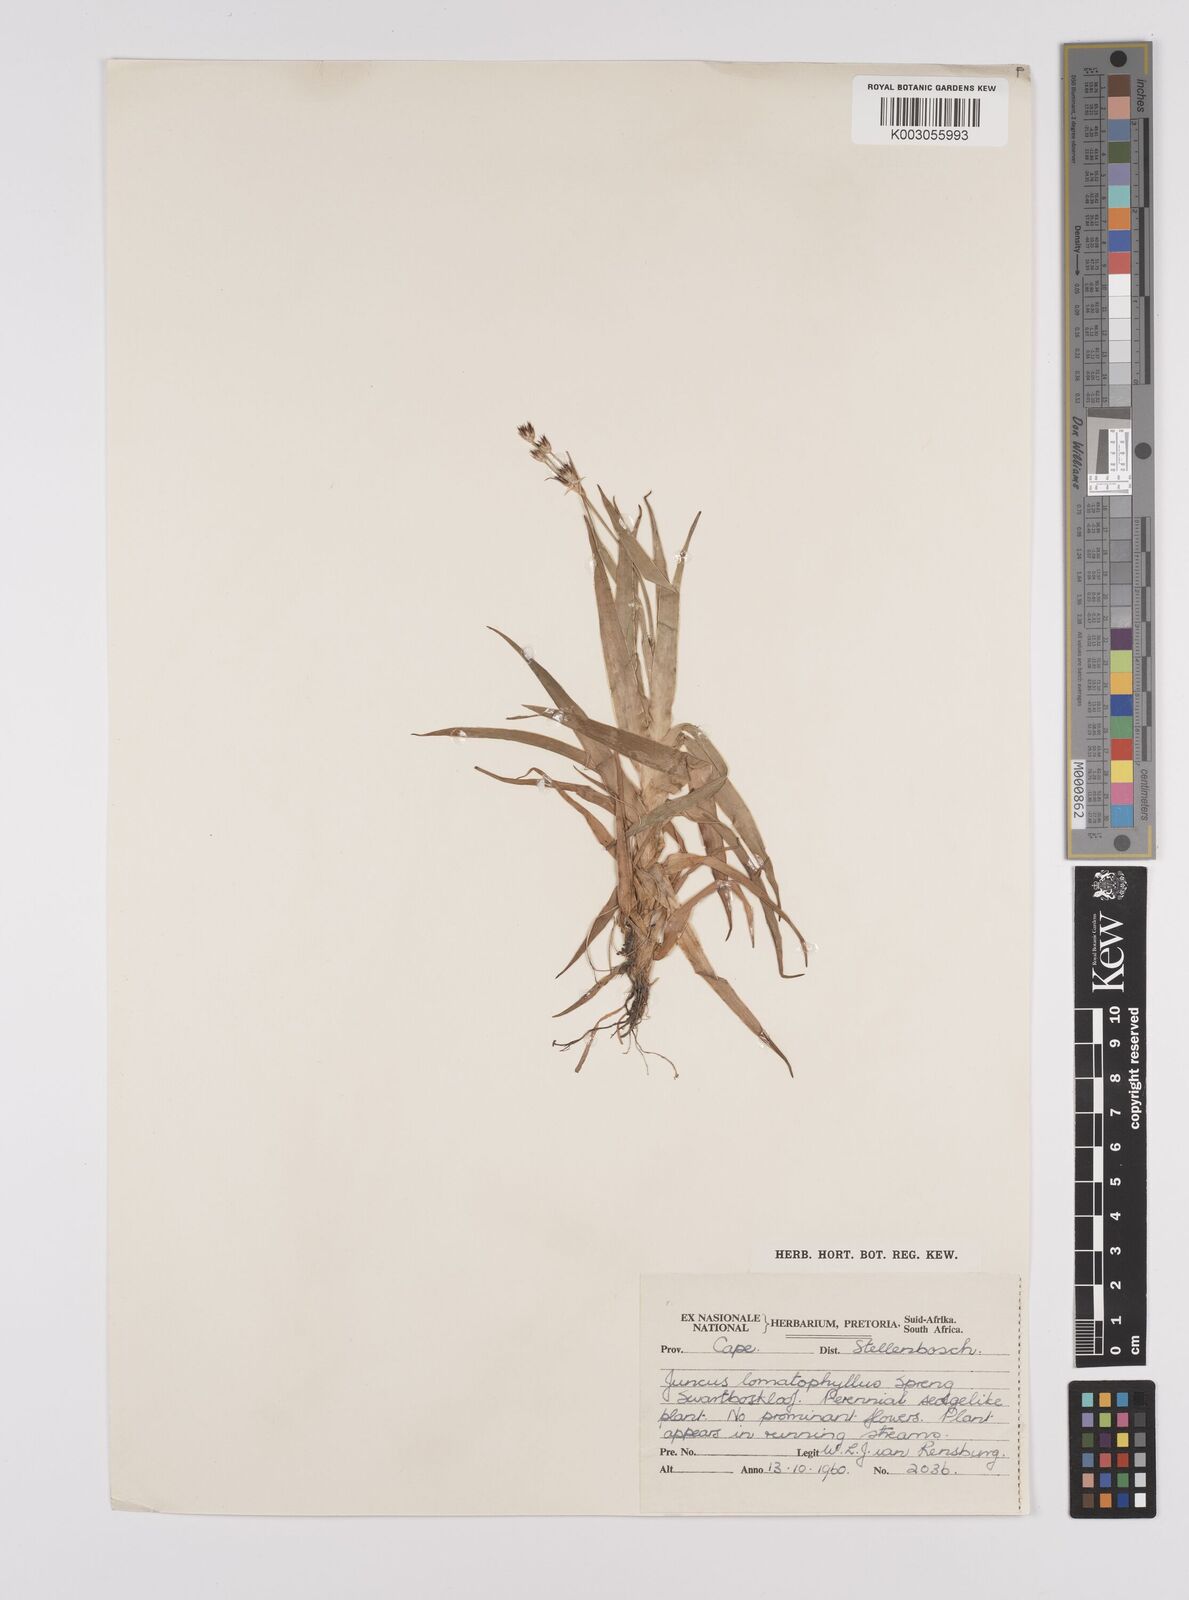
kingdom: Plantae
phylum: Tracheophyta
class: Liliopsida
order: Poales
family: Juncaceae
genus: Juncus
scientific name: Juncus lomatophyllus
